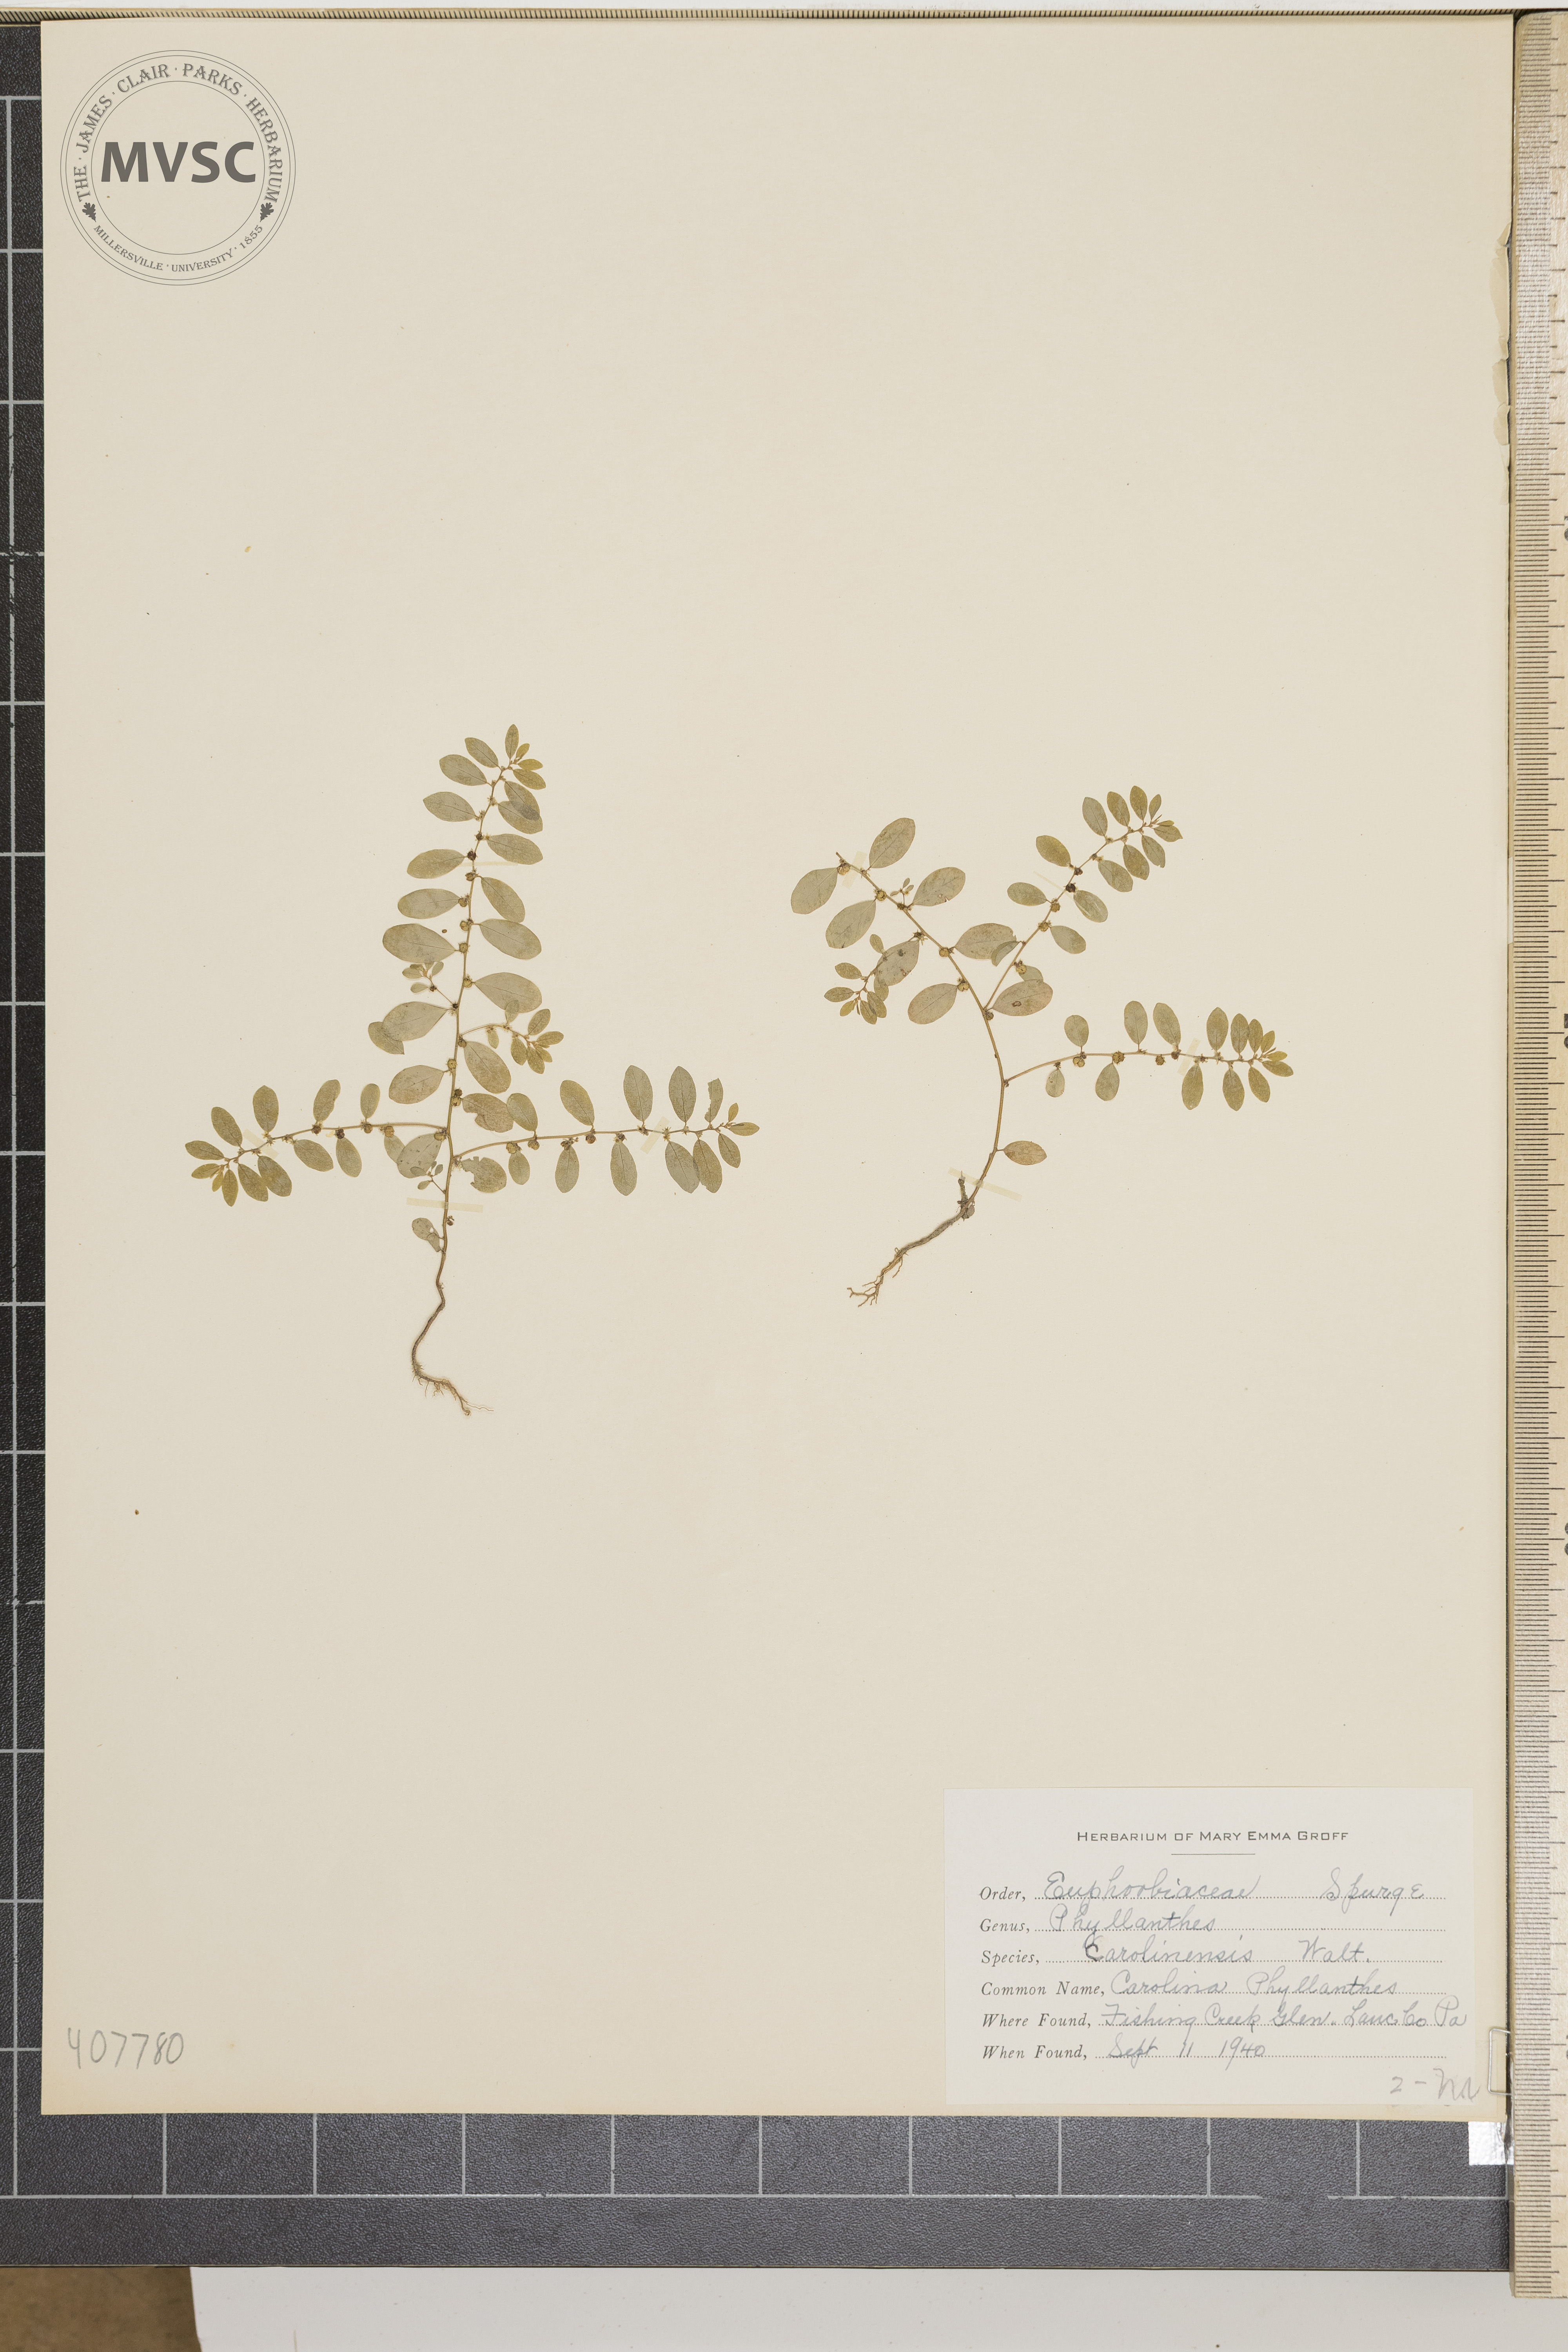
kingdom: Plantae
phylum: Tracheophyta
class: Magnoliopsida
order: Malpighiales
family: Phyllanthaceae
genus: Phyllanthus
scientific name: Phyllanthus caroliniensis
